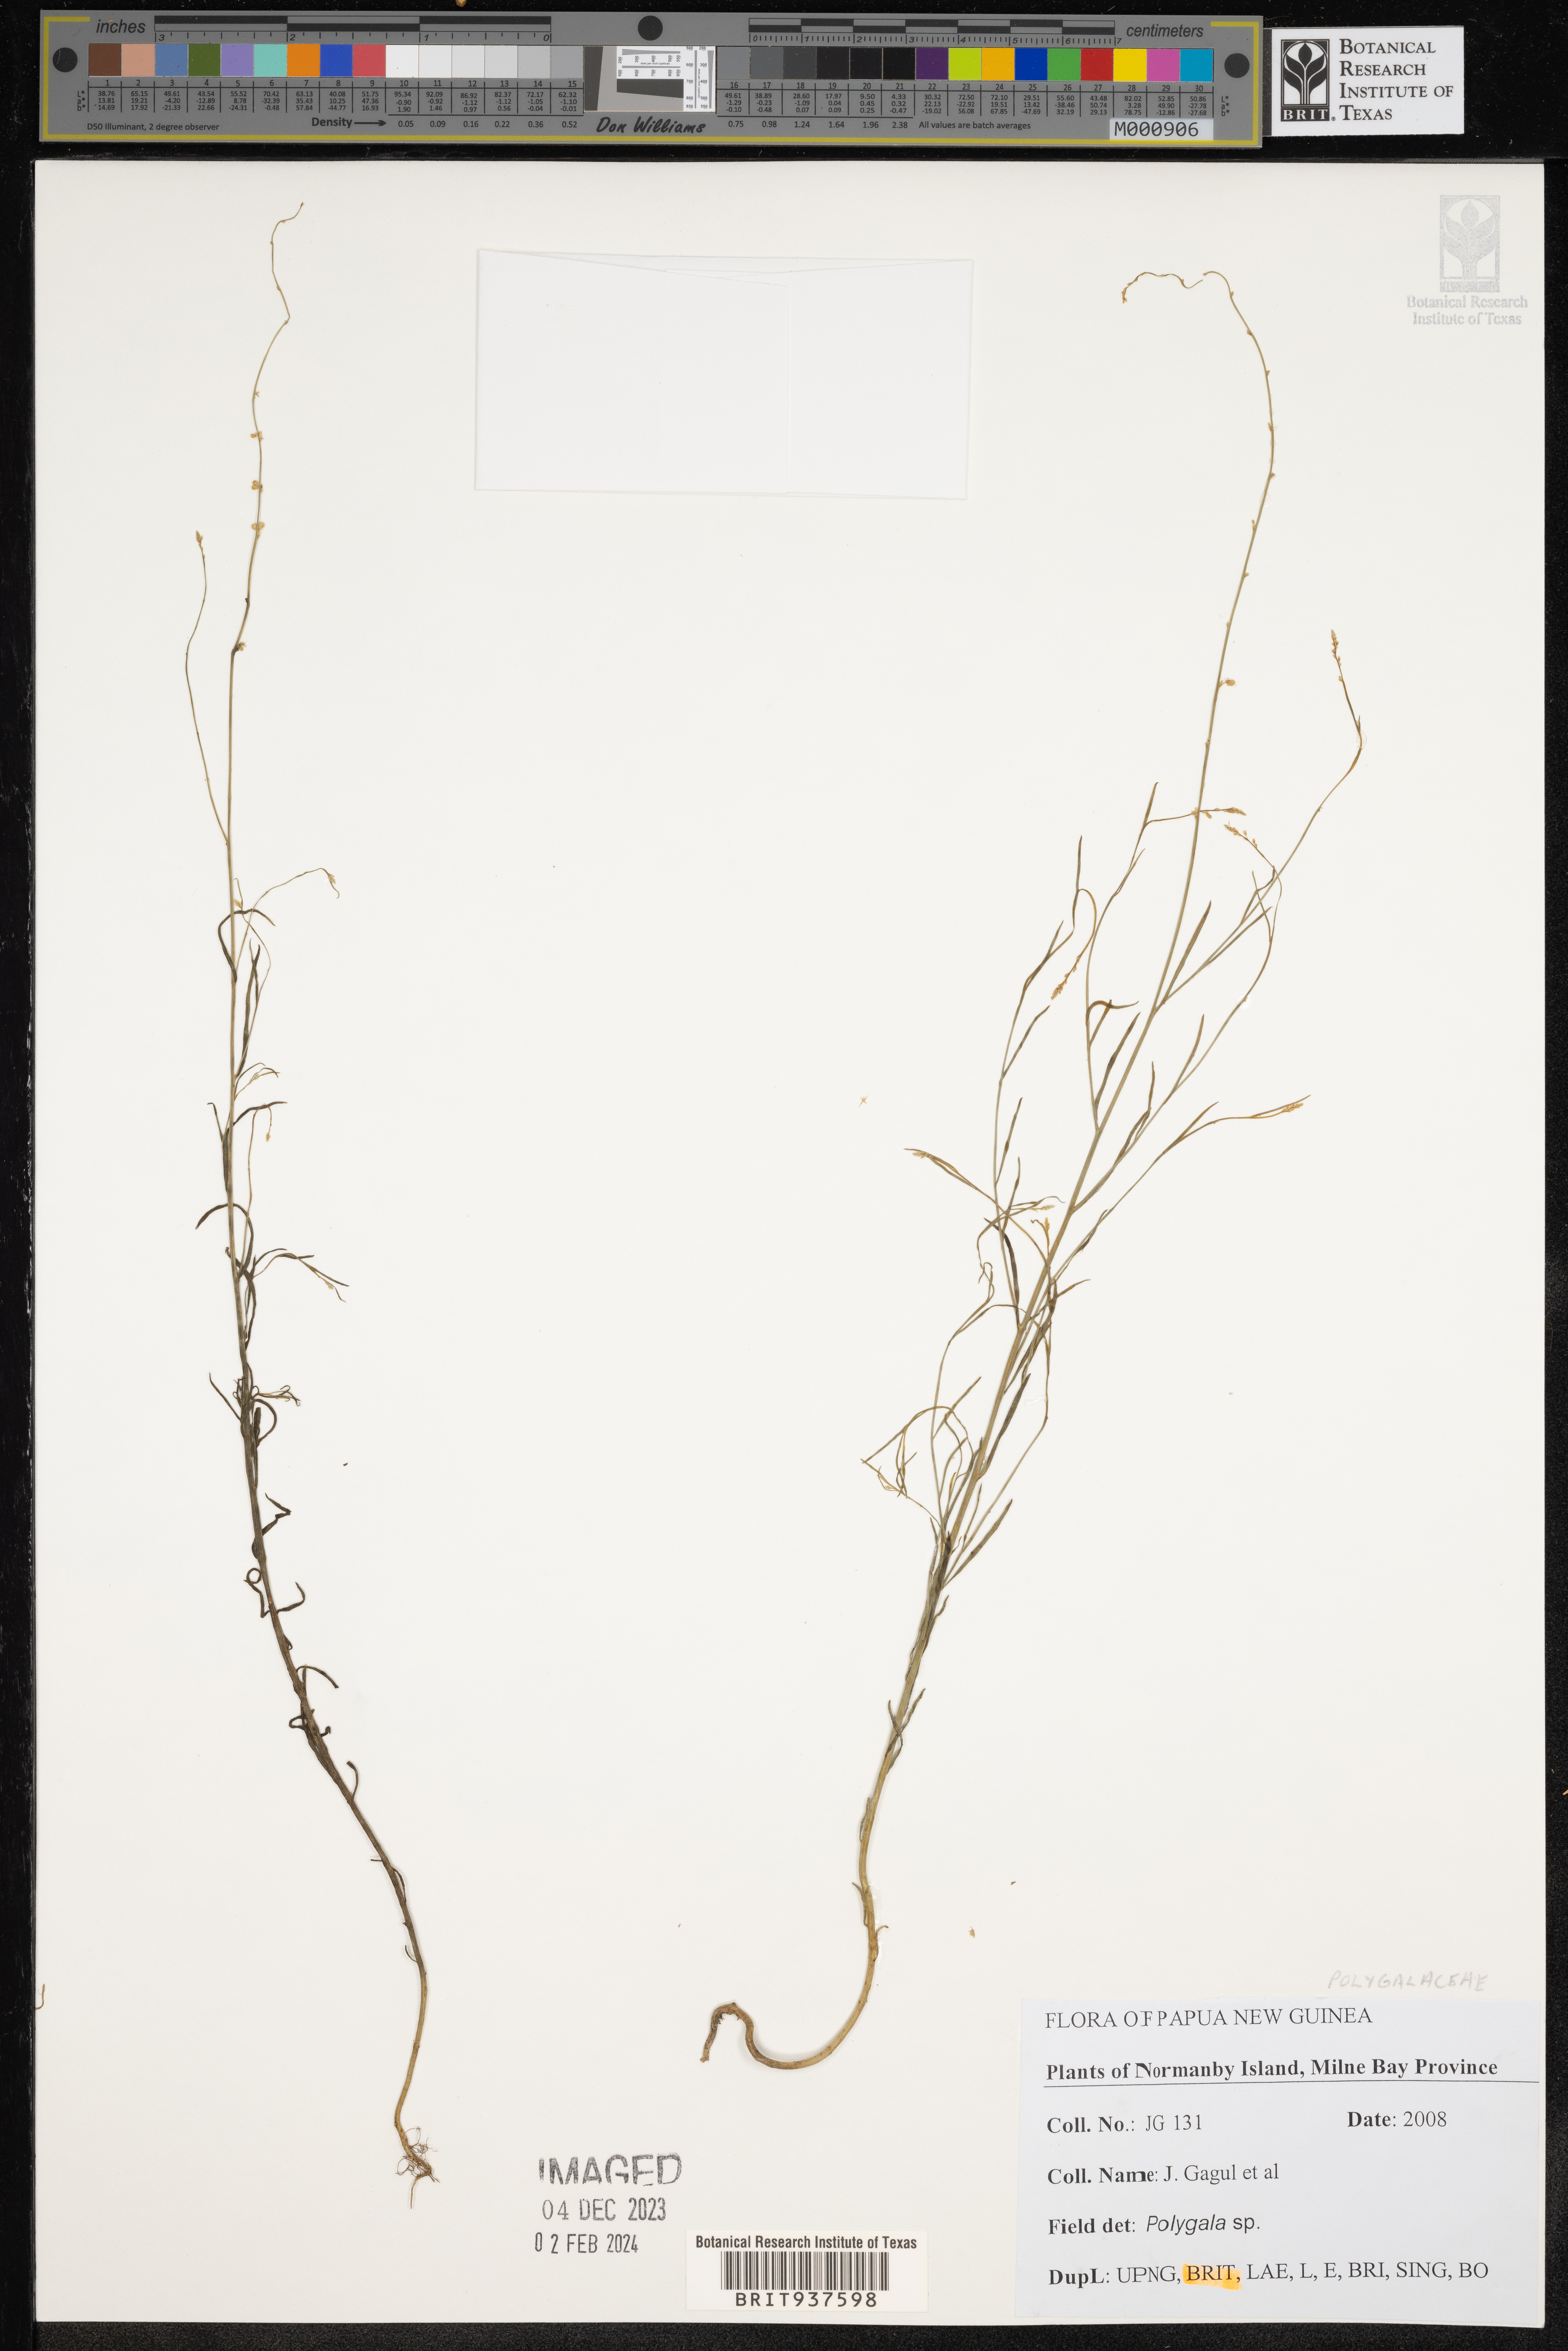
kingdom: Plantae
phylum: Tracheophyta
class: Magnoliopsida
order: Fabales
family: Polygalaceae
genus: Polygala
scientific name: Polygala
